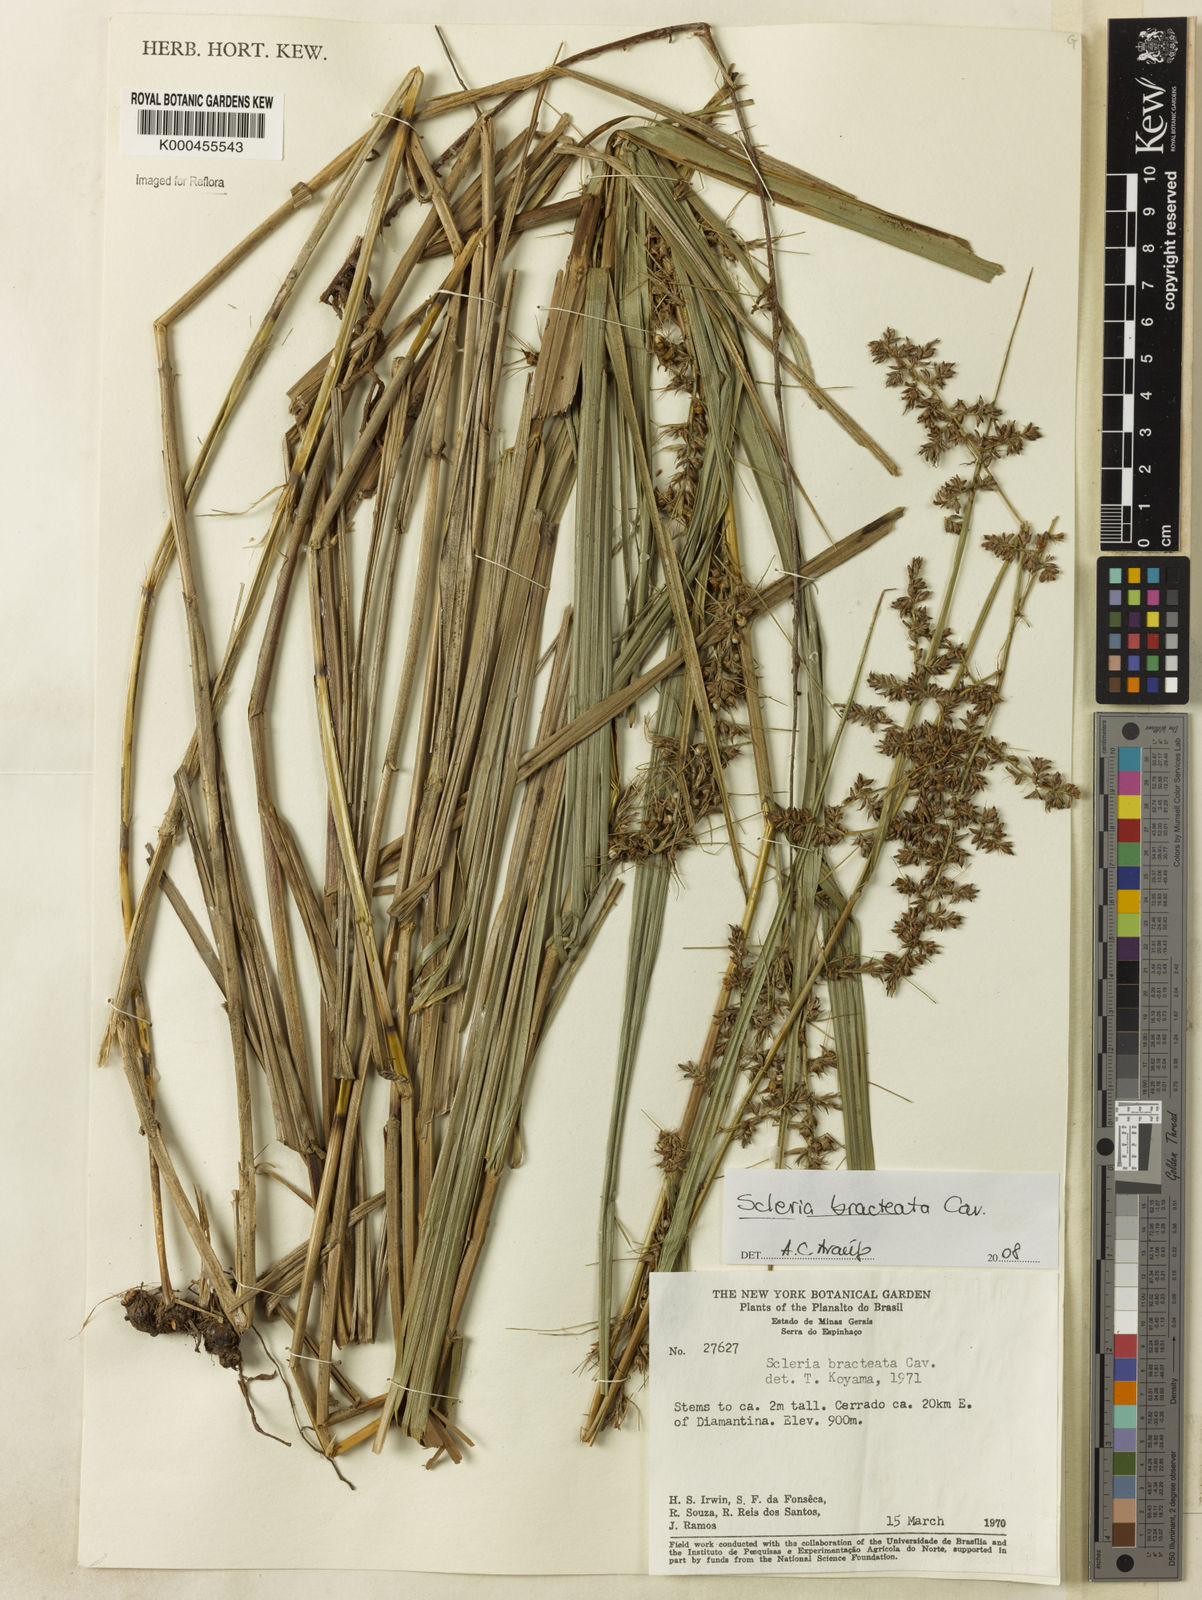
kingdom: Plantae
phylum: Tracheophyta
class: Liliopsida
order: Poales
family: Cyperaceae
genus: Scleria
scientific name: Scleria bracteata
